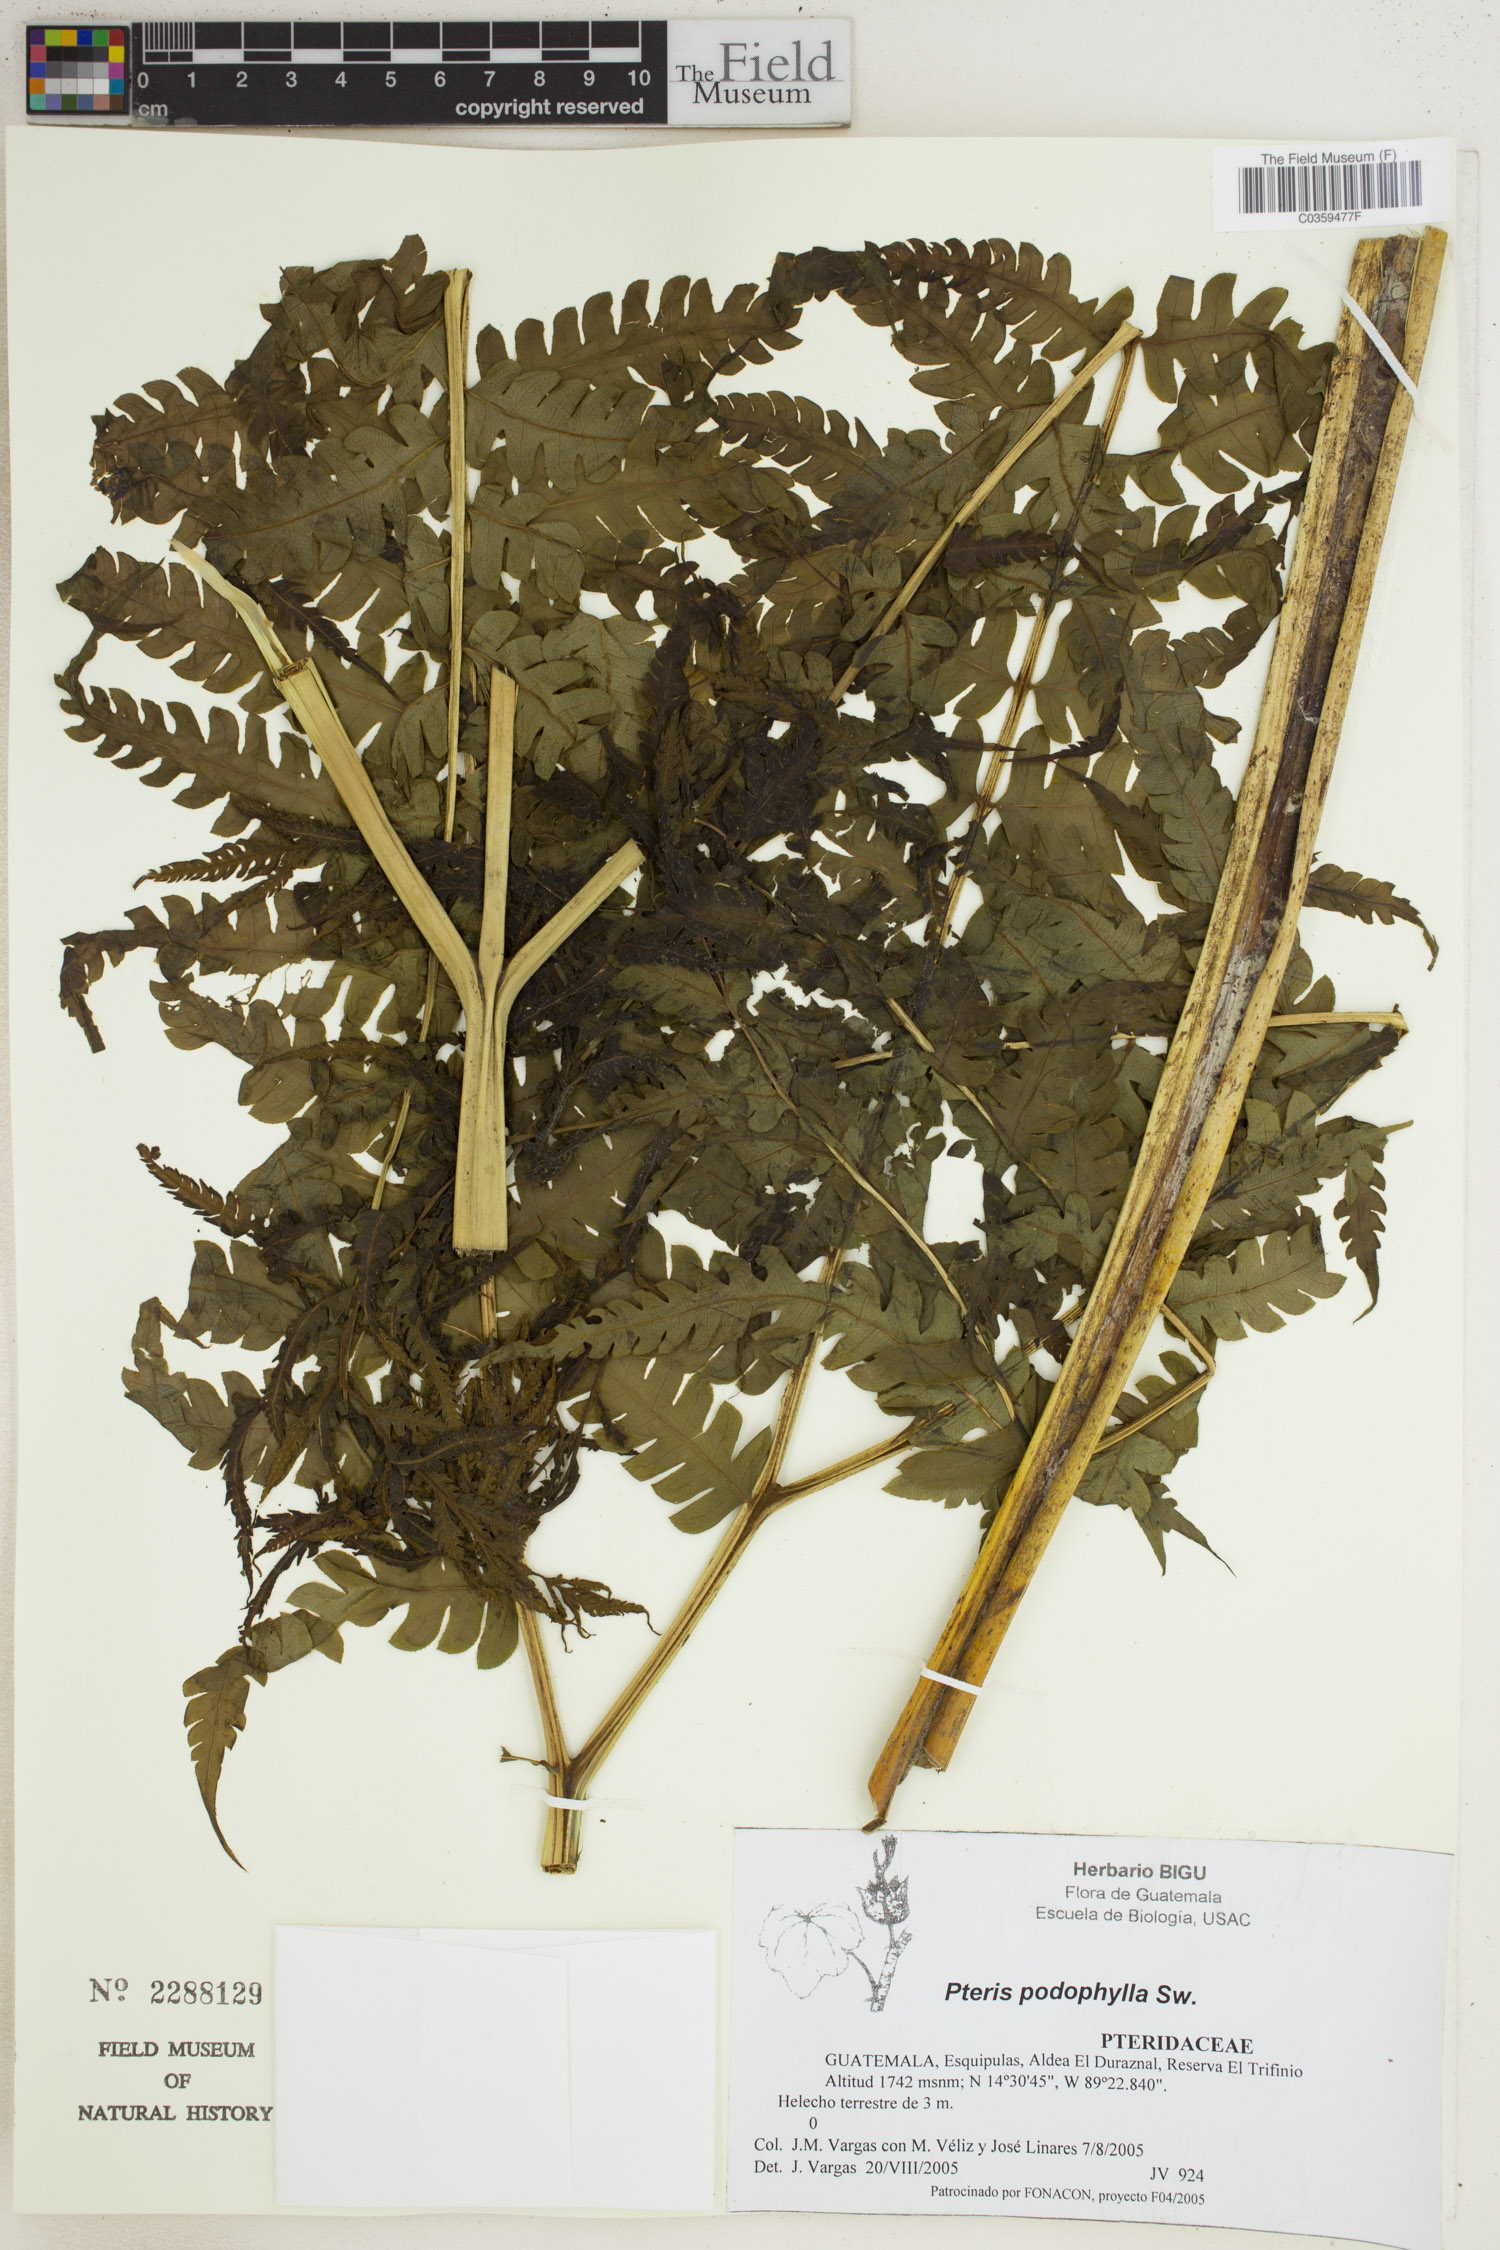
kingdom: Plantae
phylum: Tracheophyta
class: Polypodiopsida
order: Polypodiales
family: Pteridaceae
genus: Pteris
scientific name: Pteris podophylla
